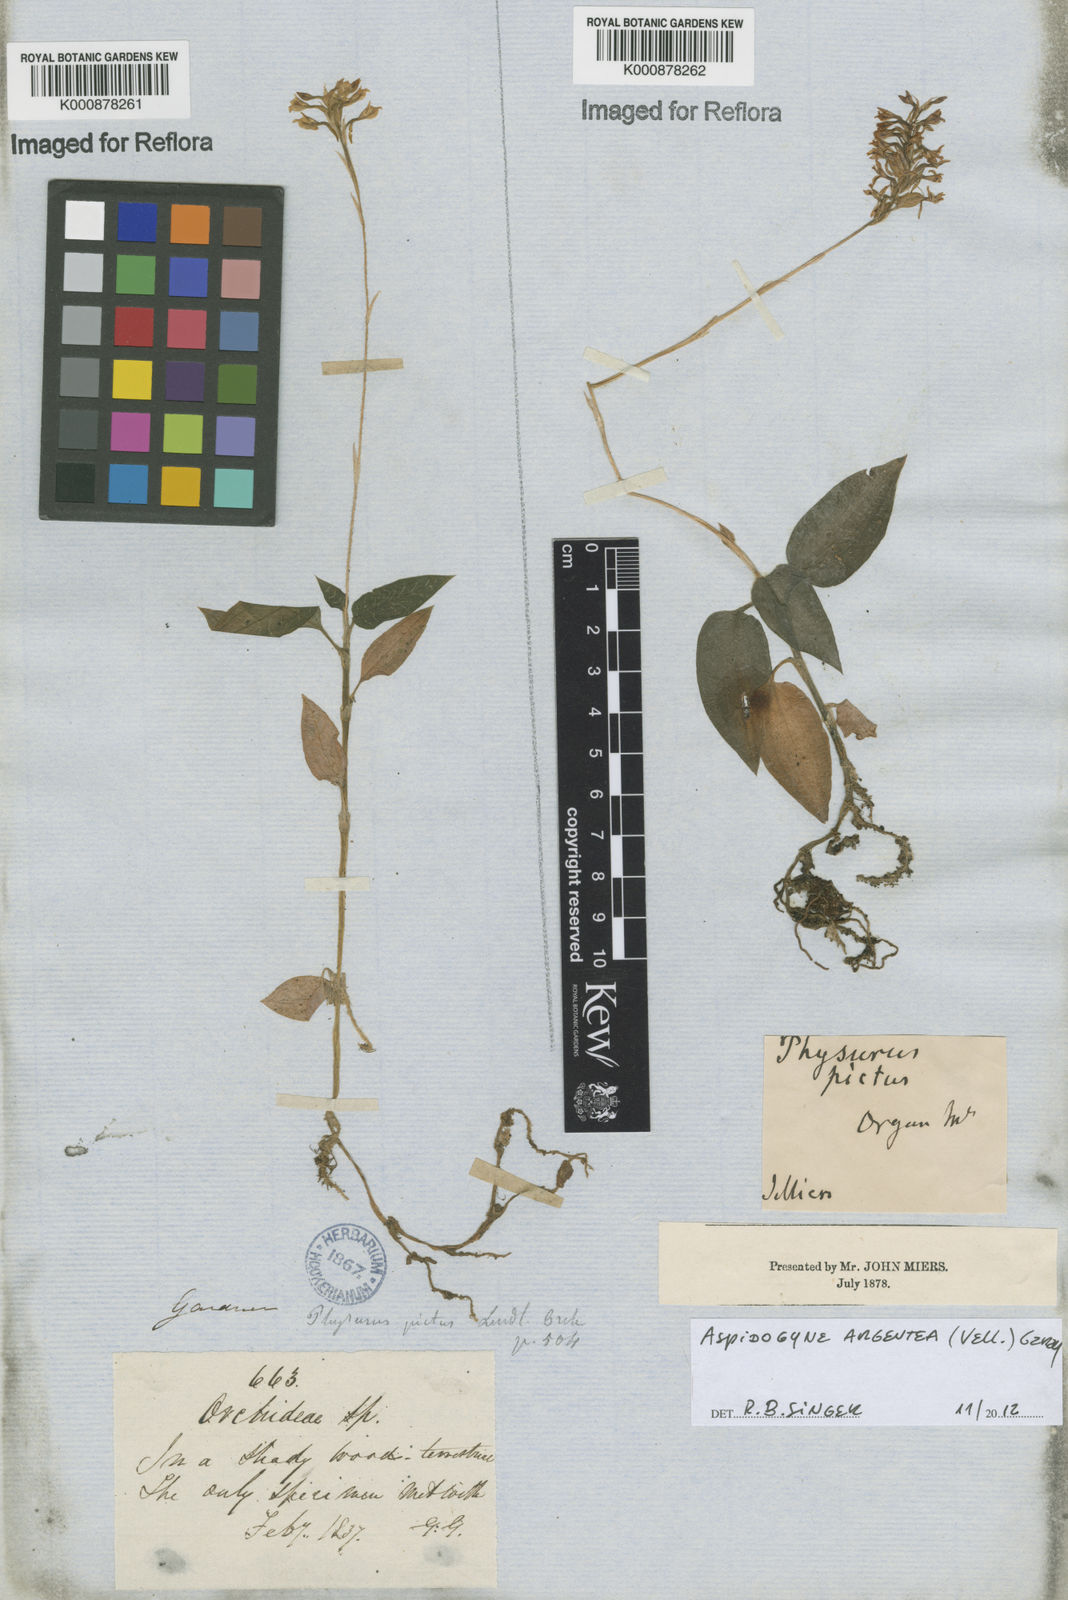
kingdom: Plantae
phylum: Tracheophyta
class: Liliopsida
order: Asparagales
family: Orchidaceae
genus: Aspidogyne
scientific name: Aspidogyne argentea
